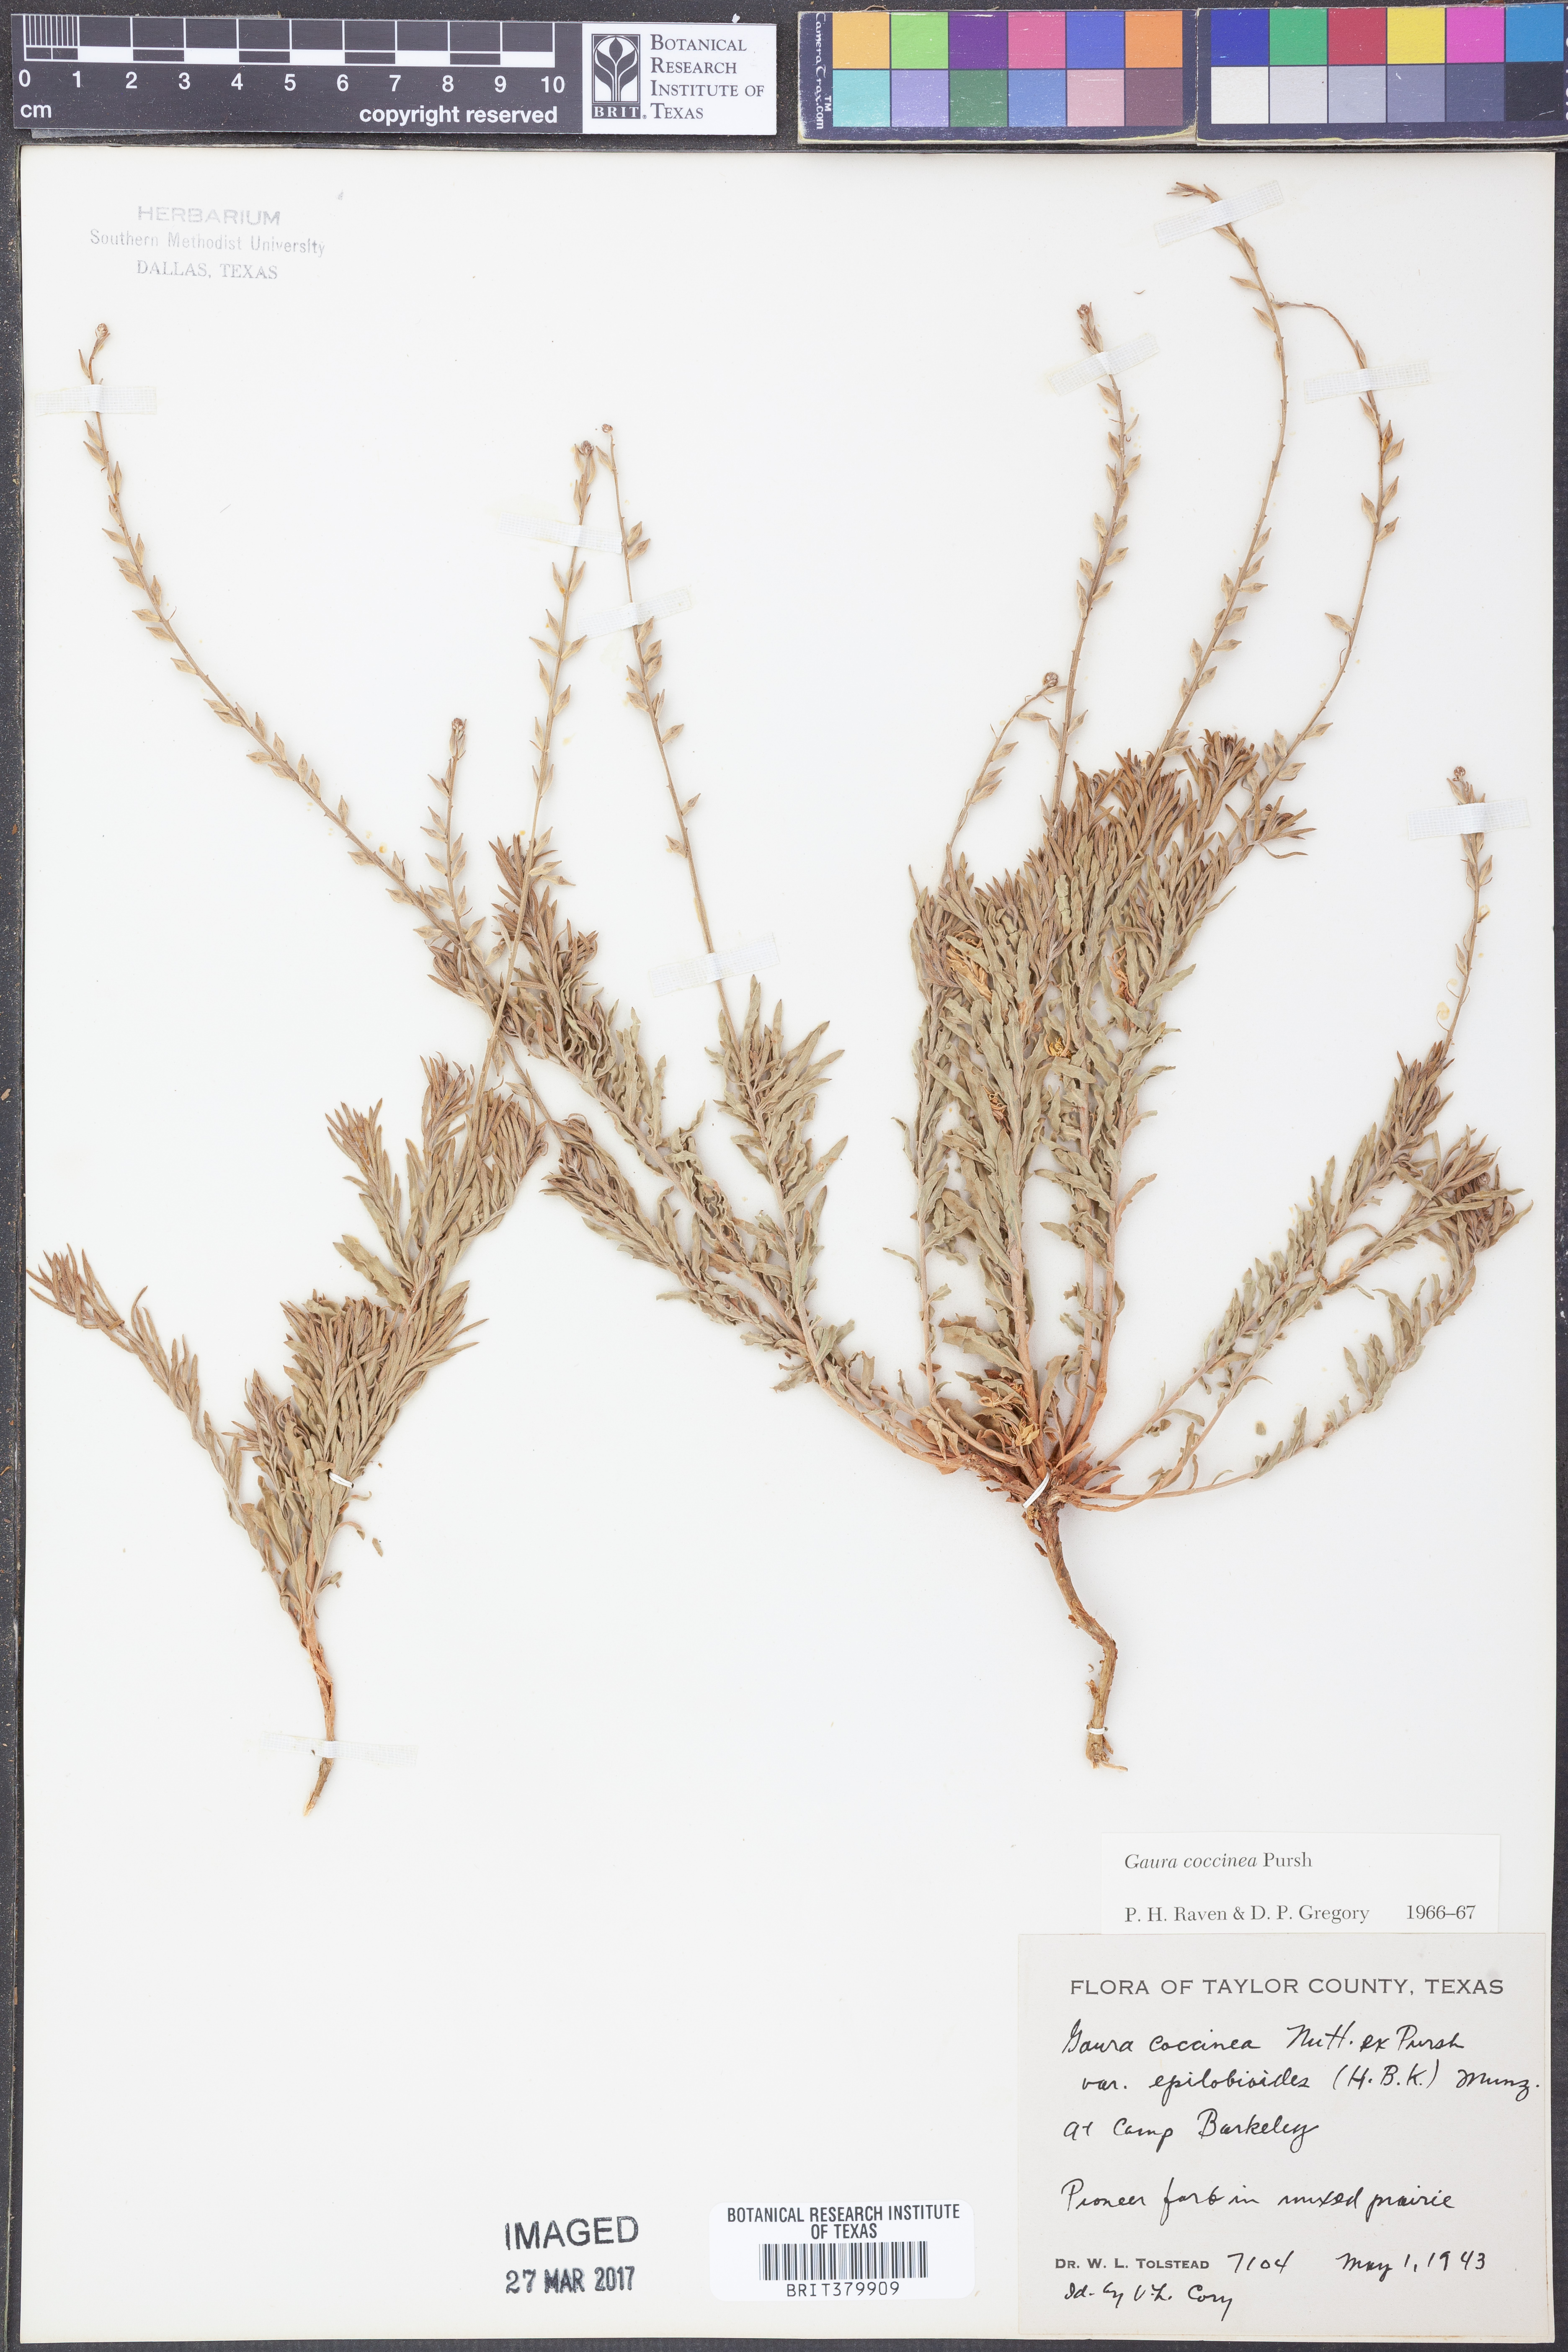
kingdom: Plantae
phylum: Tracheophyta
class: Magnoliopsida
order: Myrtales
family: Onagraceae
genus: Oenothera
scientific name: Oenothera suffrutescens
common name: Scarlet beeblossom
